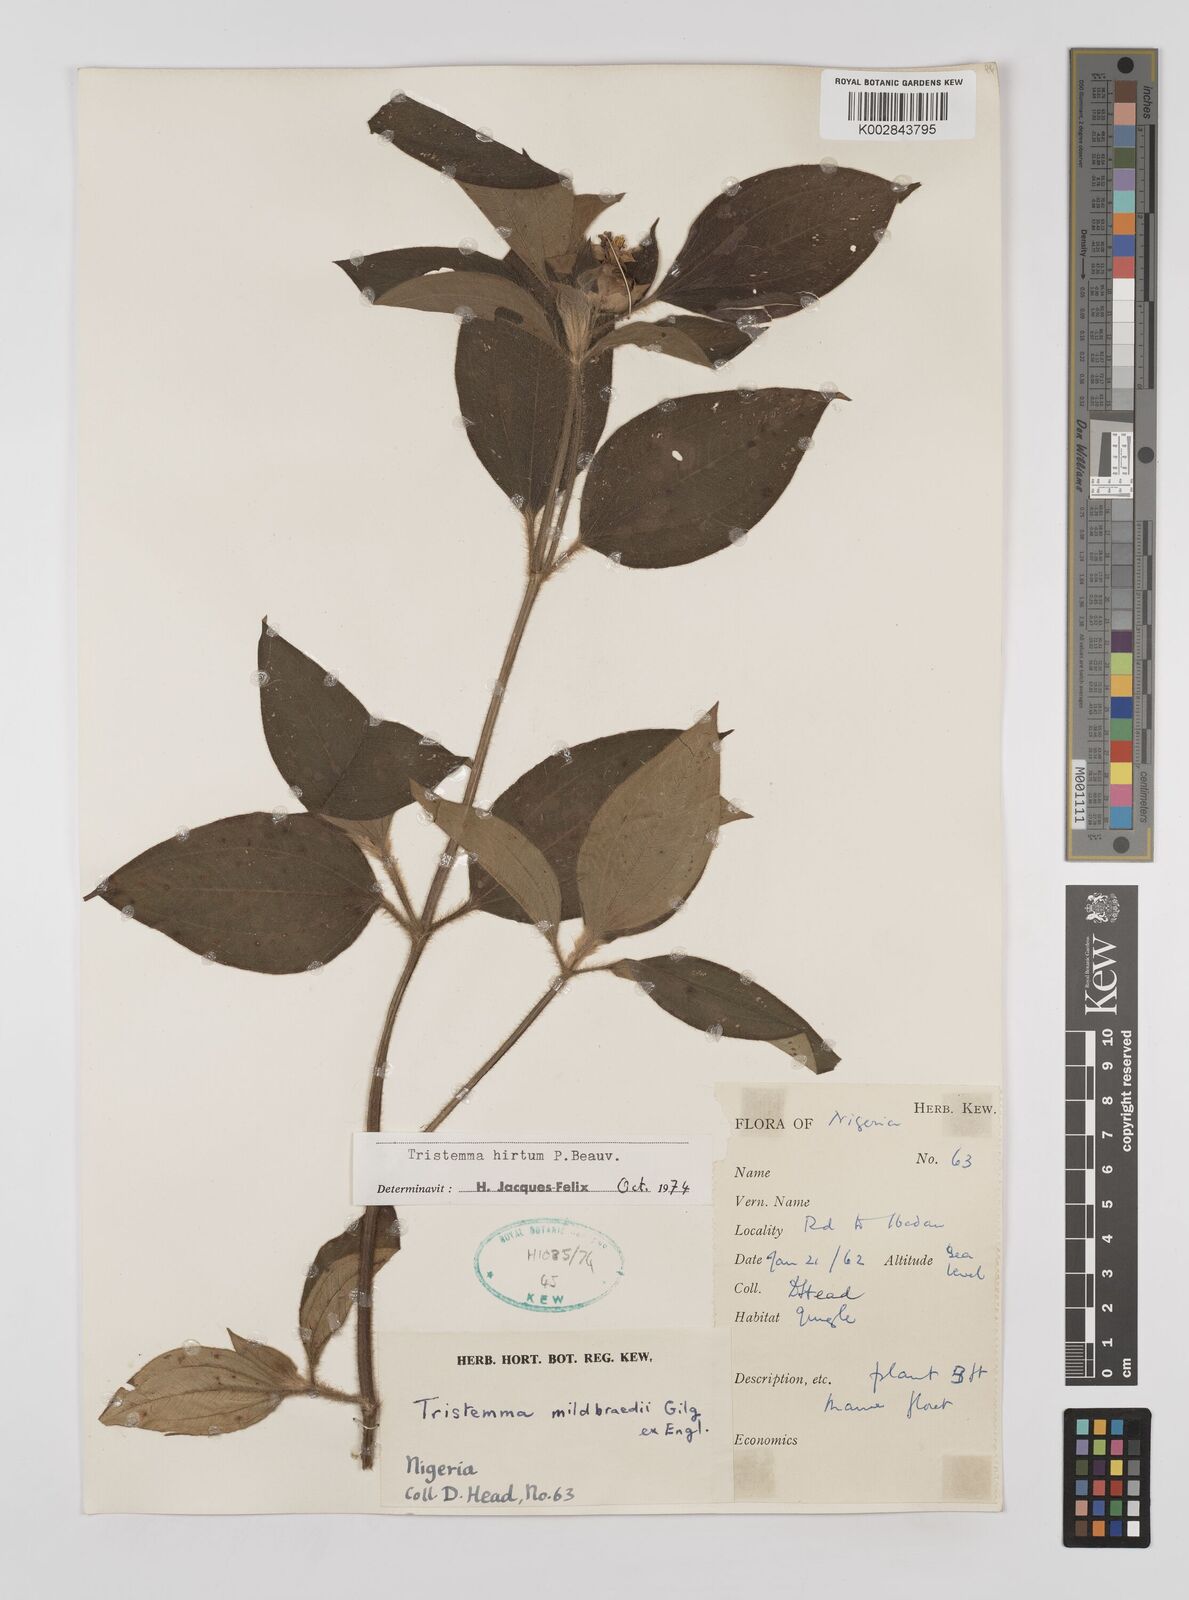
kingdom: Plantae
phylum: Tracheophyta
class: Magnoliopsida
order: Myrtales
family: Melastomataceae
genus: Tristemma
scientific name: Tristemma hirtum
